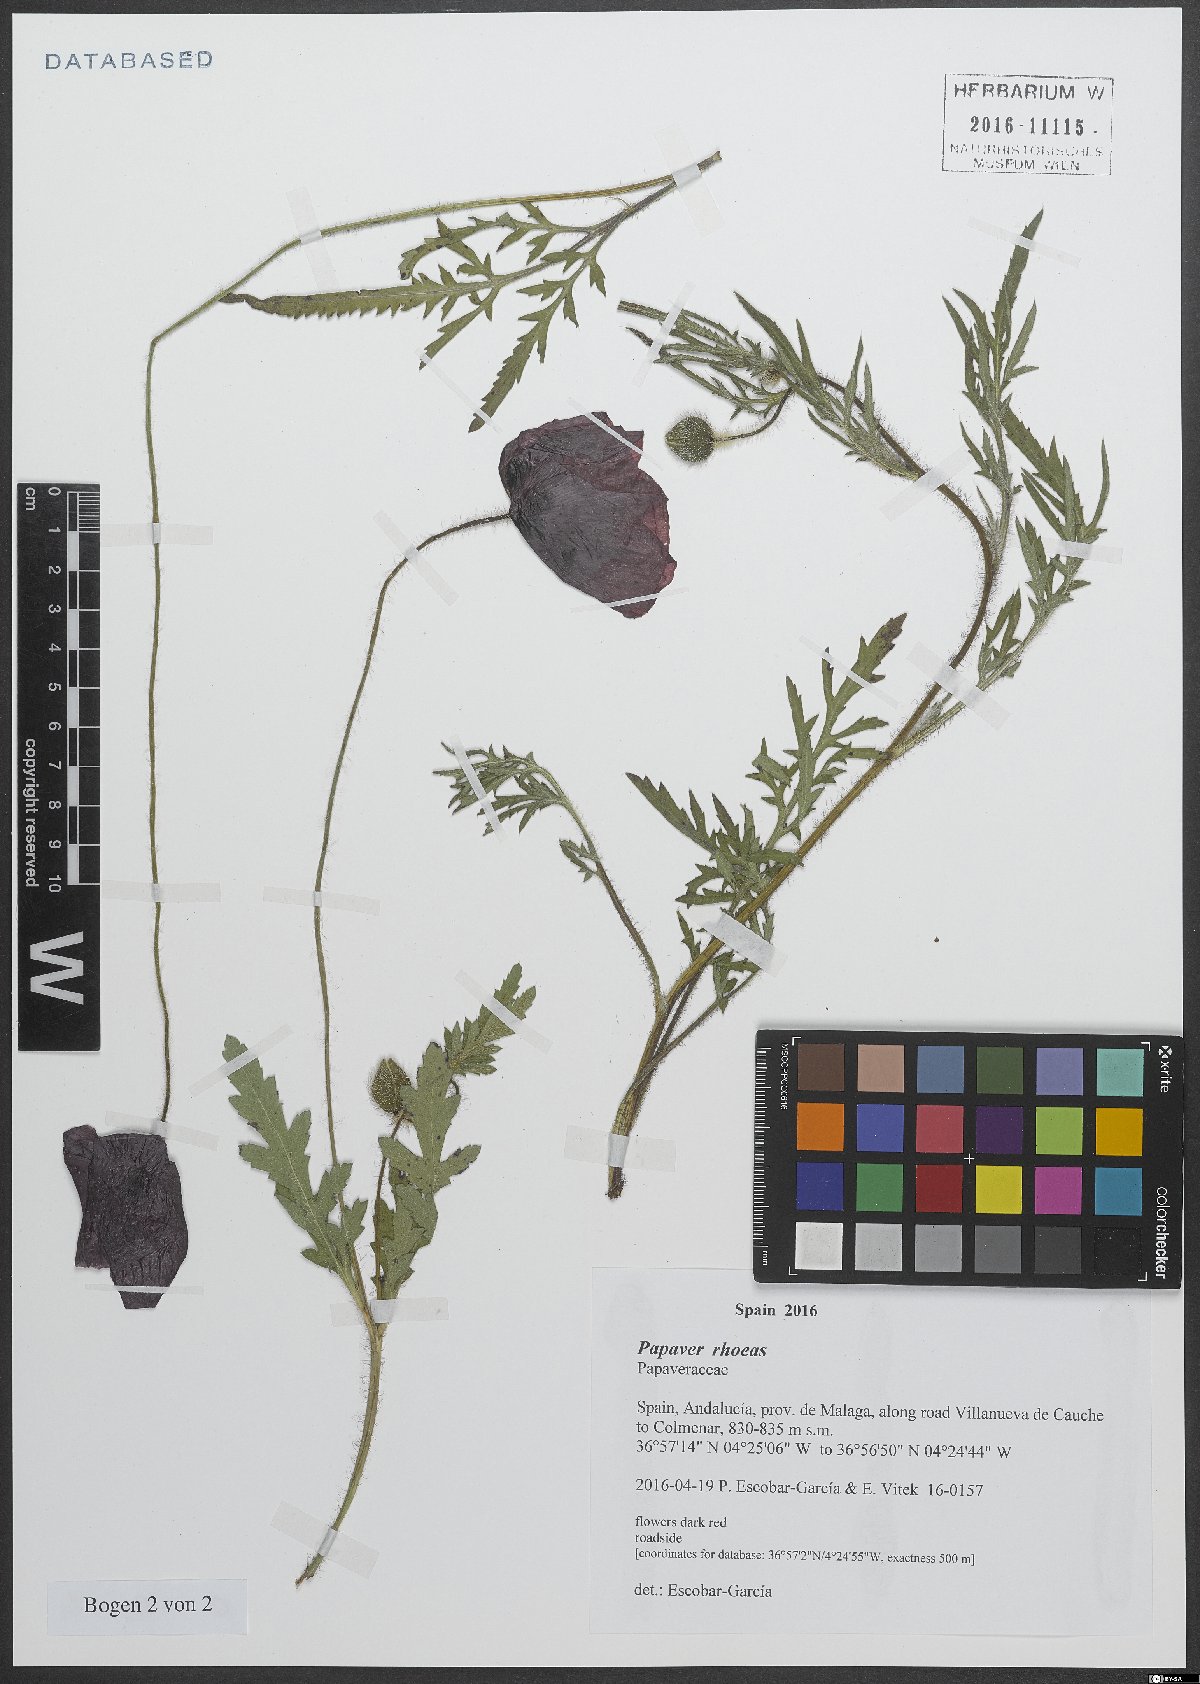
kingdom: Plantae
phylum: Tracheophyta
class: Magnoliopsida
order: Ranunculales
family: Papaveraceae
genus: Papaver
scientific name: Papaver rhoeas
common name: Corn poppy
